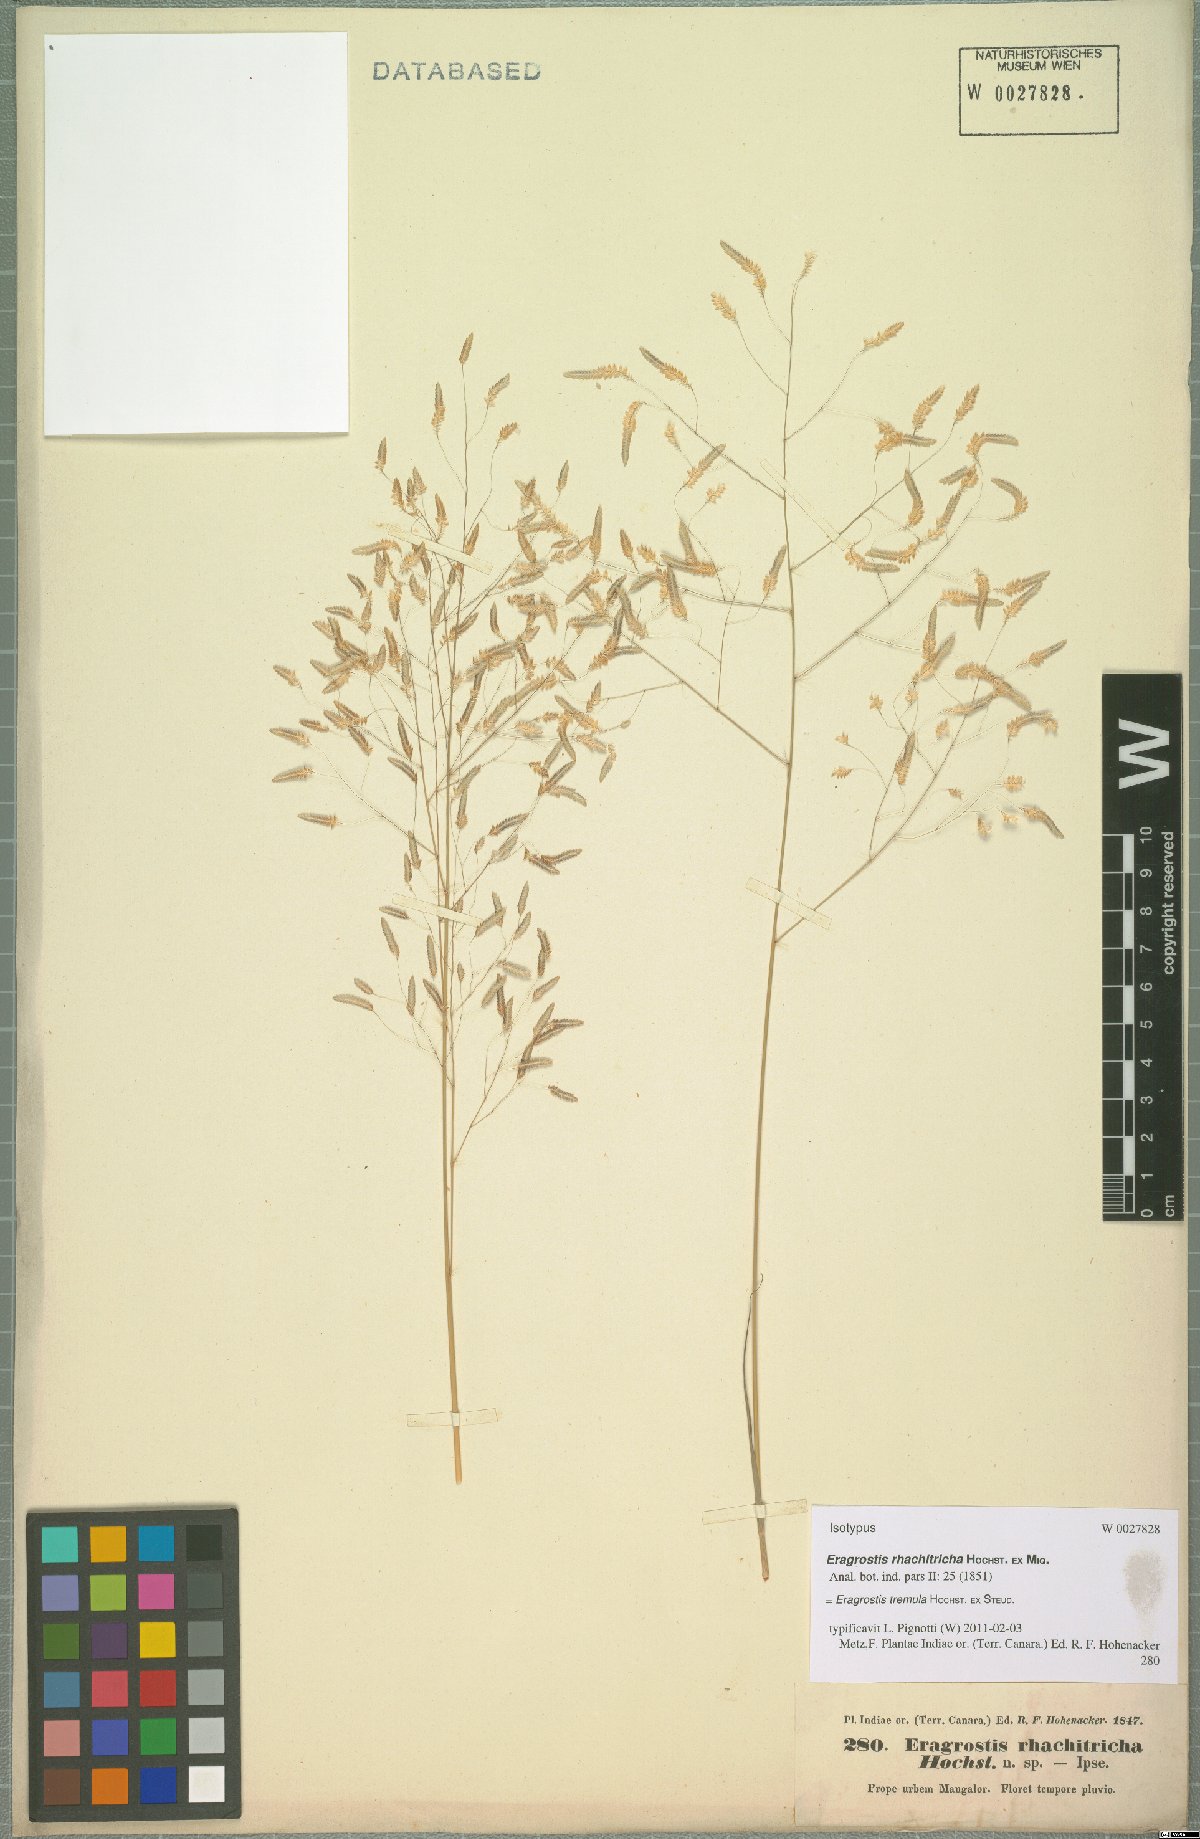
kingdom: Plantae
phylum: Tracheophyta
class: Liliopsida
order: Poales
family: Poaceae
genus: Eragrostis
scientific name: Eragrostis tremula
